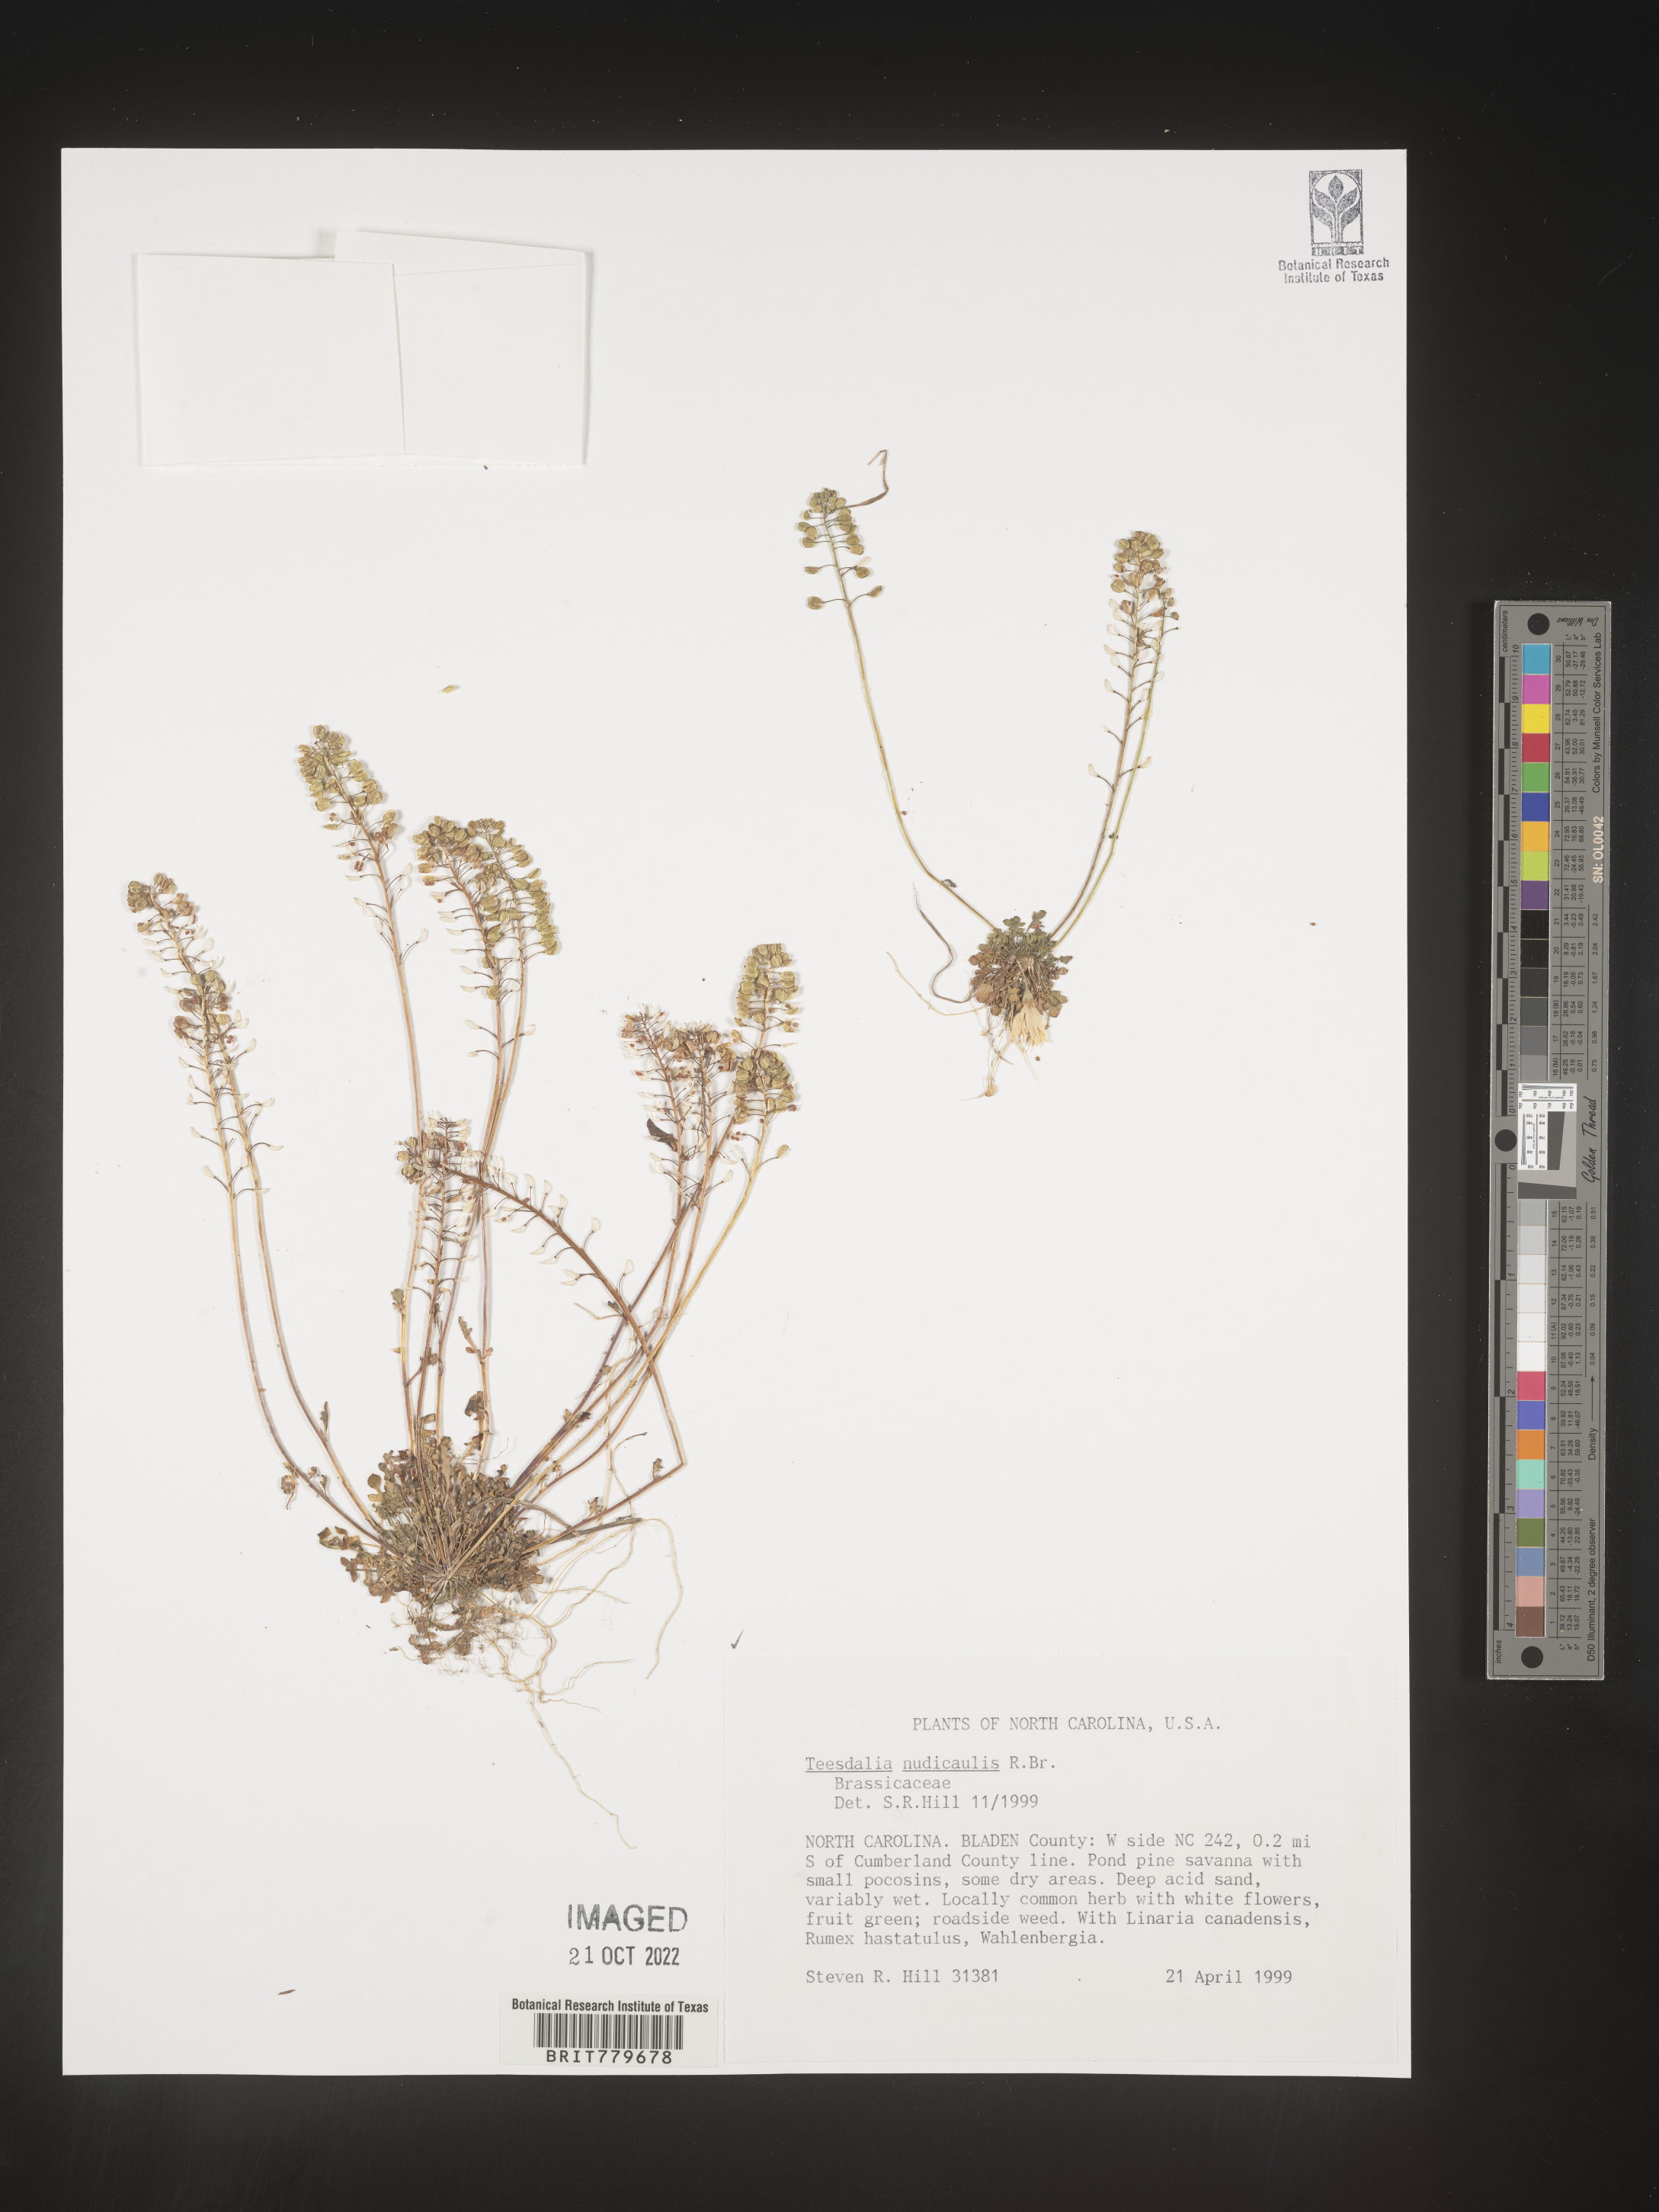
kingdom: Plantae
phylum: Tracheophyta
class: Magnoliopsida
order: Brassicales
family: Brassicaceae
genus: Teesdalia
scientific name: Teesdalia
